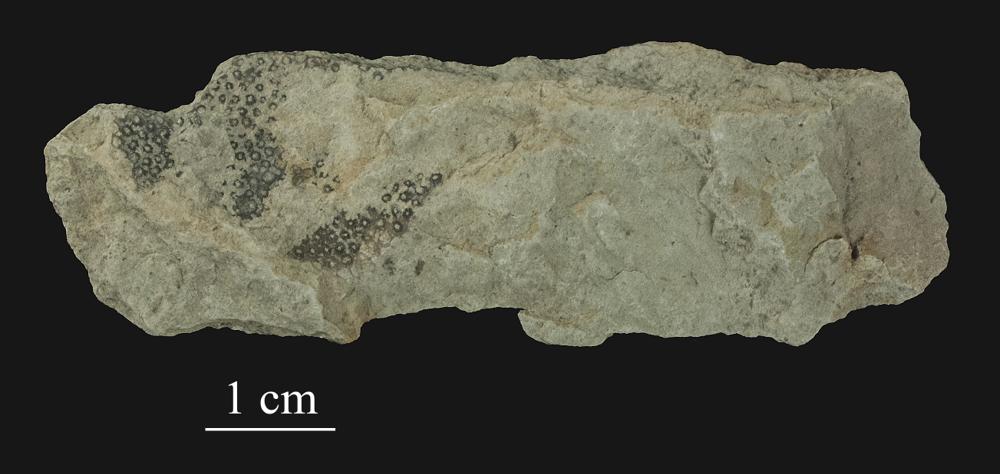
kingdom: Plantae
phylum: Chlorophyta
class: Ulvophyceae
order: Cyclocrinales
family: Cyclocrinaceae
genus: Mastopora
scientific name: Mastopora concava
